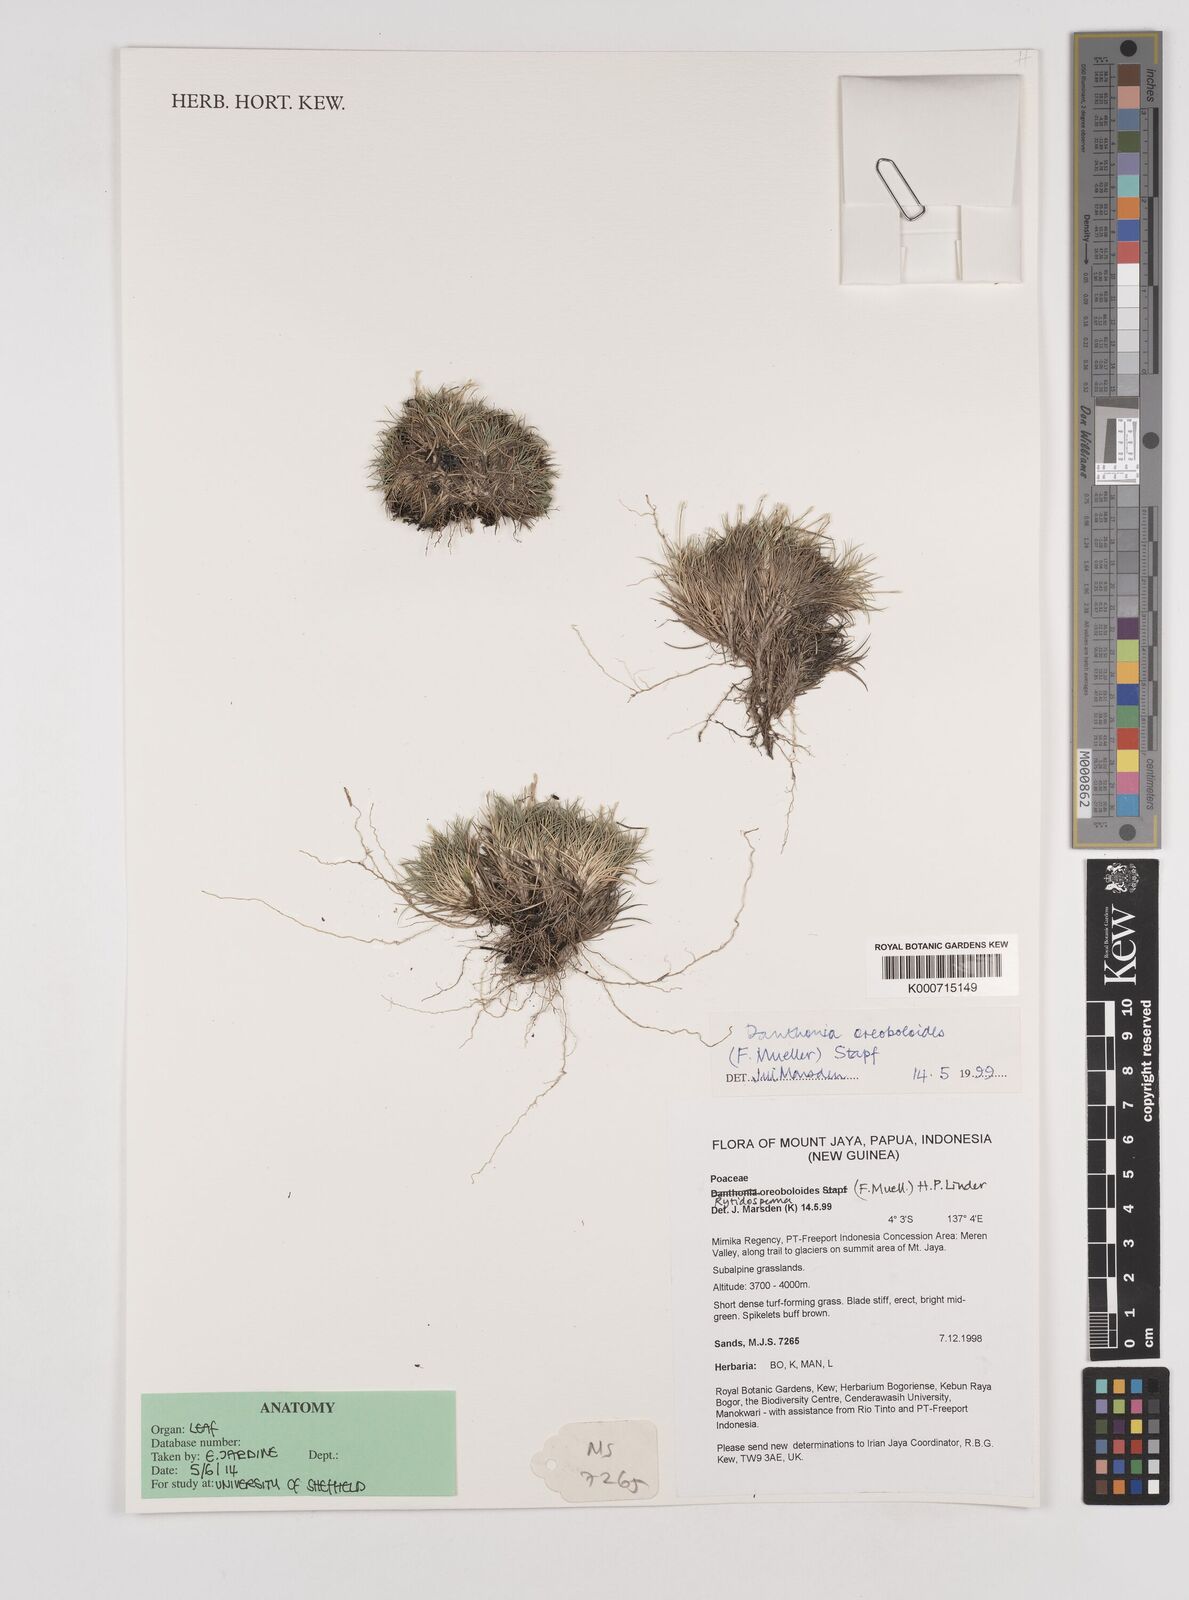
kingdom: Plantae
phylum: Tracheophyta
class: Liliopsida
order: Poales
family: Poaceae
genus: Rytidosperma
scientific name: Rytidosperma oreoboloides
